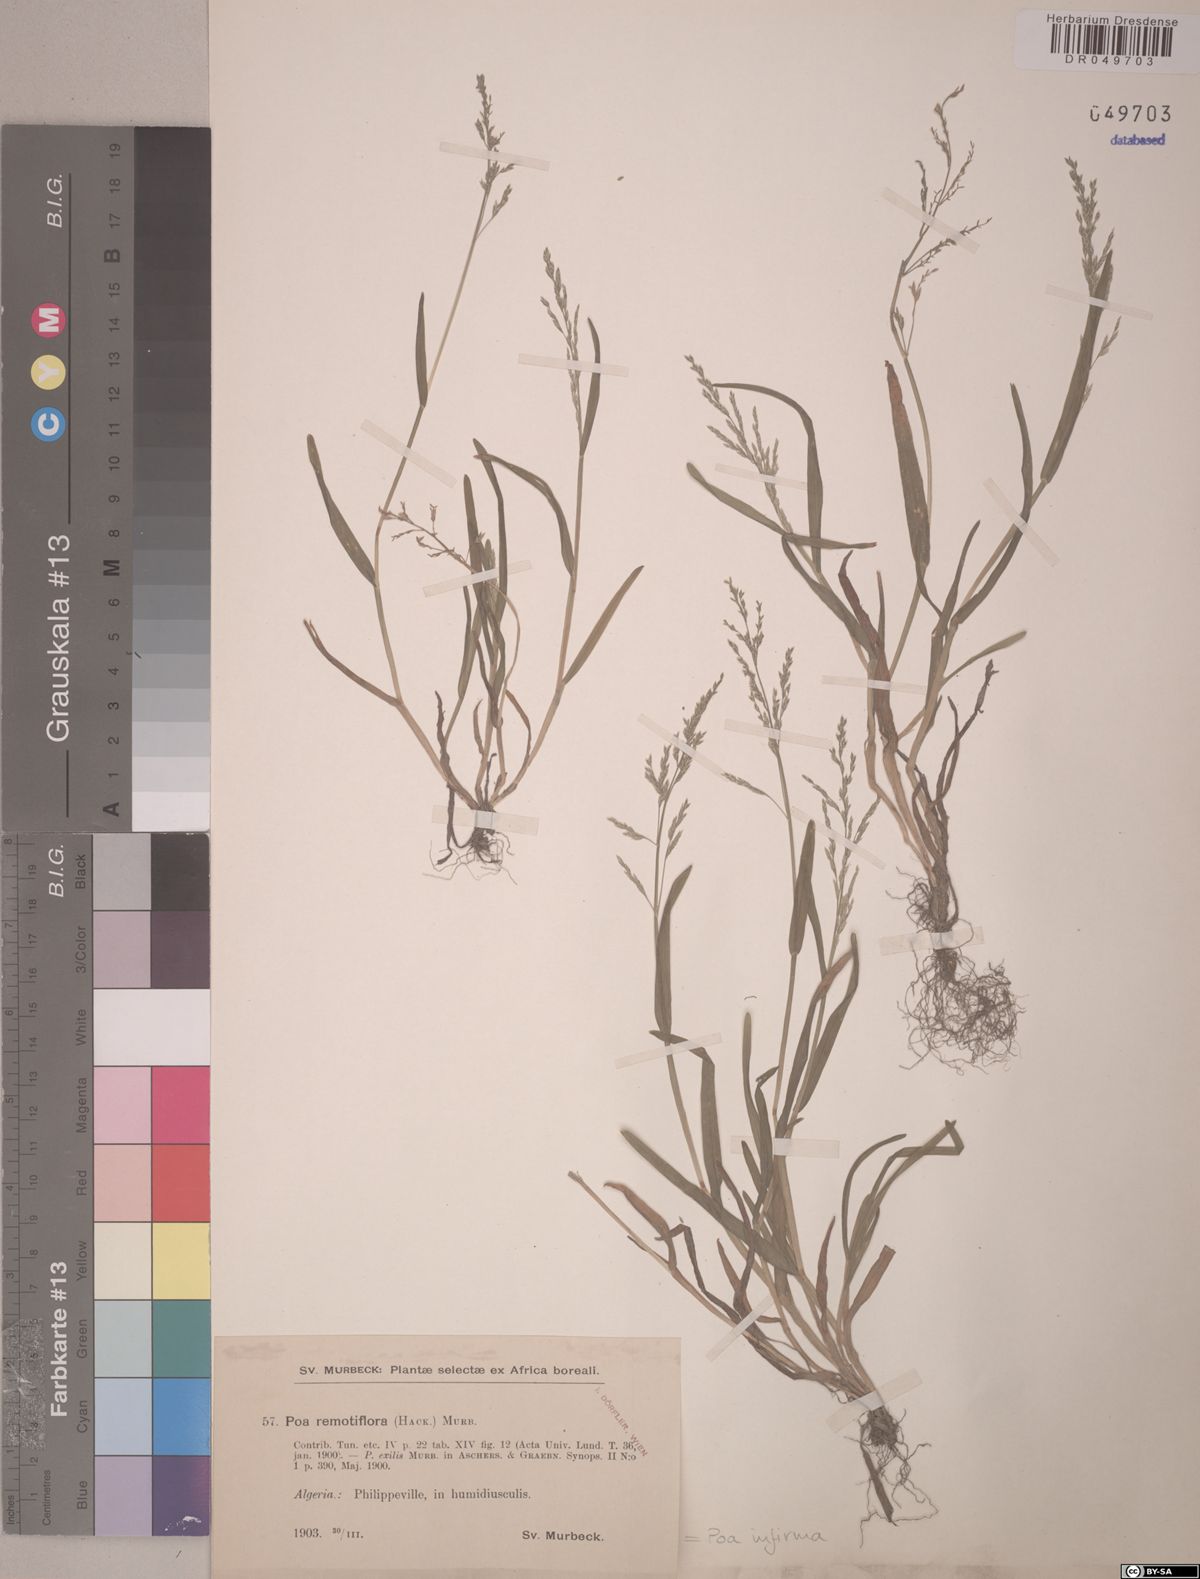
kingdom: Plantae
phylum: Tracheophyta
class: Liliopsida
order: Poales
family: Poaceae
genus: Poa
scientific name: Poa infirma
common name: Weak bluegrass
